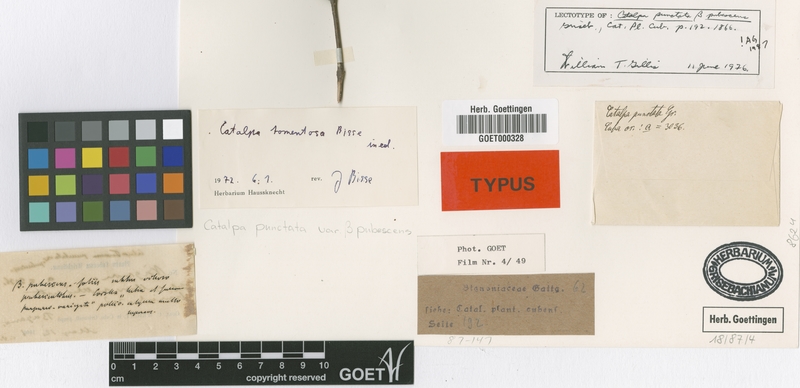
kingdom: Plantae
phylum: Tracheophyta
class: Magnoliopsida
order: Lamiales
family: Bignoniaceae
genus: Catalpa
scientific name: Catalpa macrocarpa
